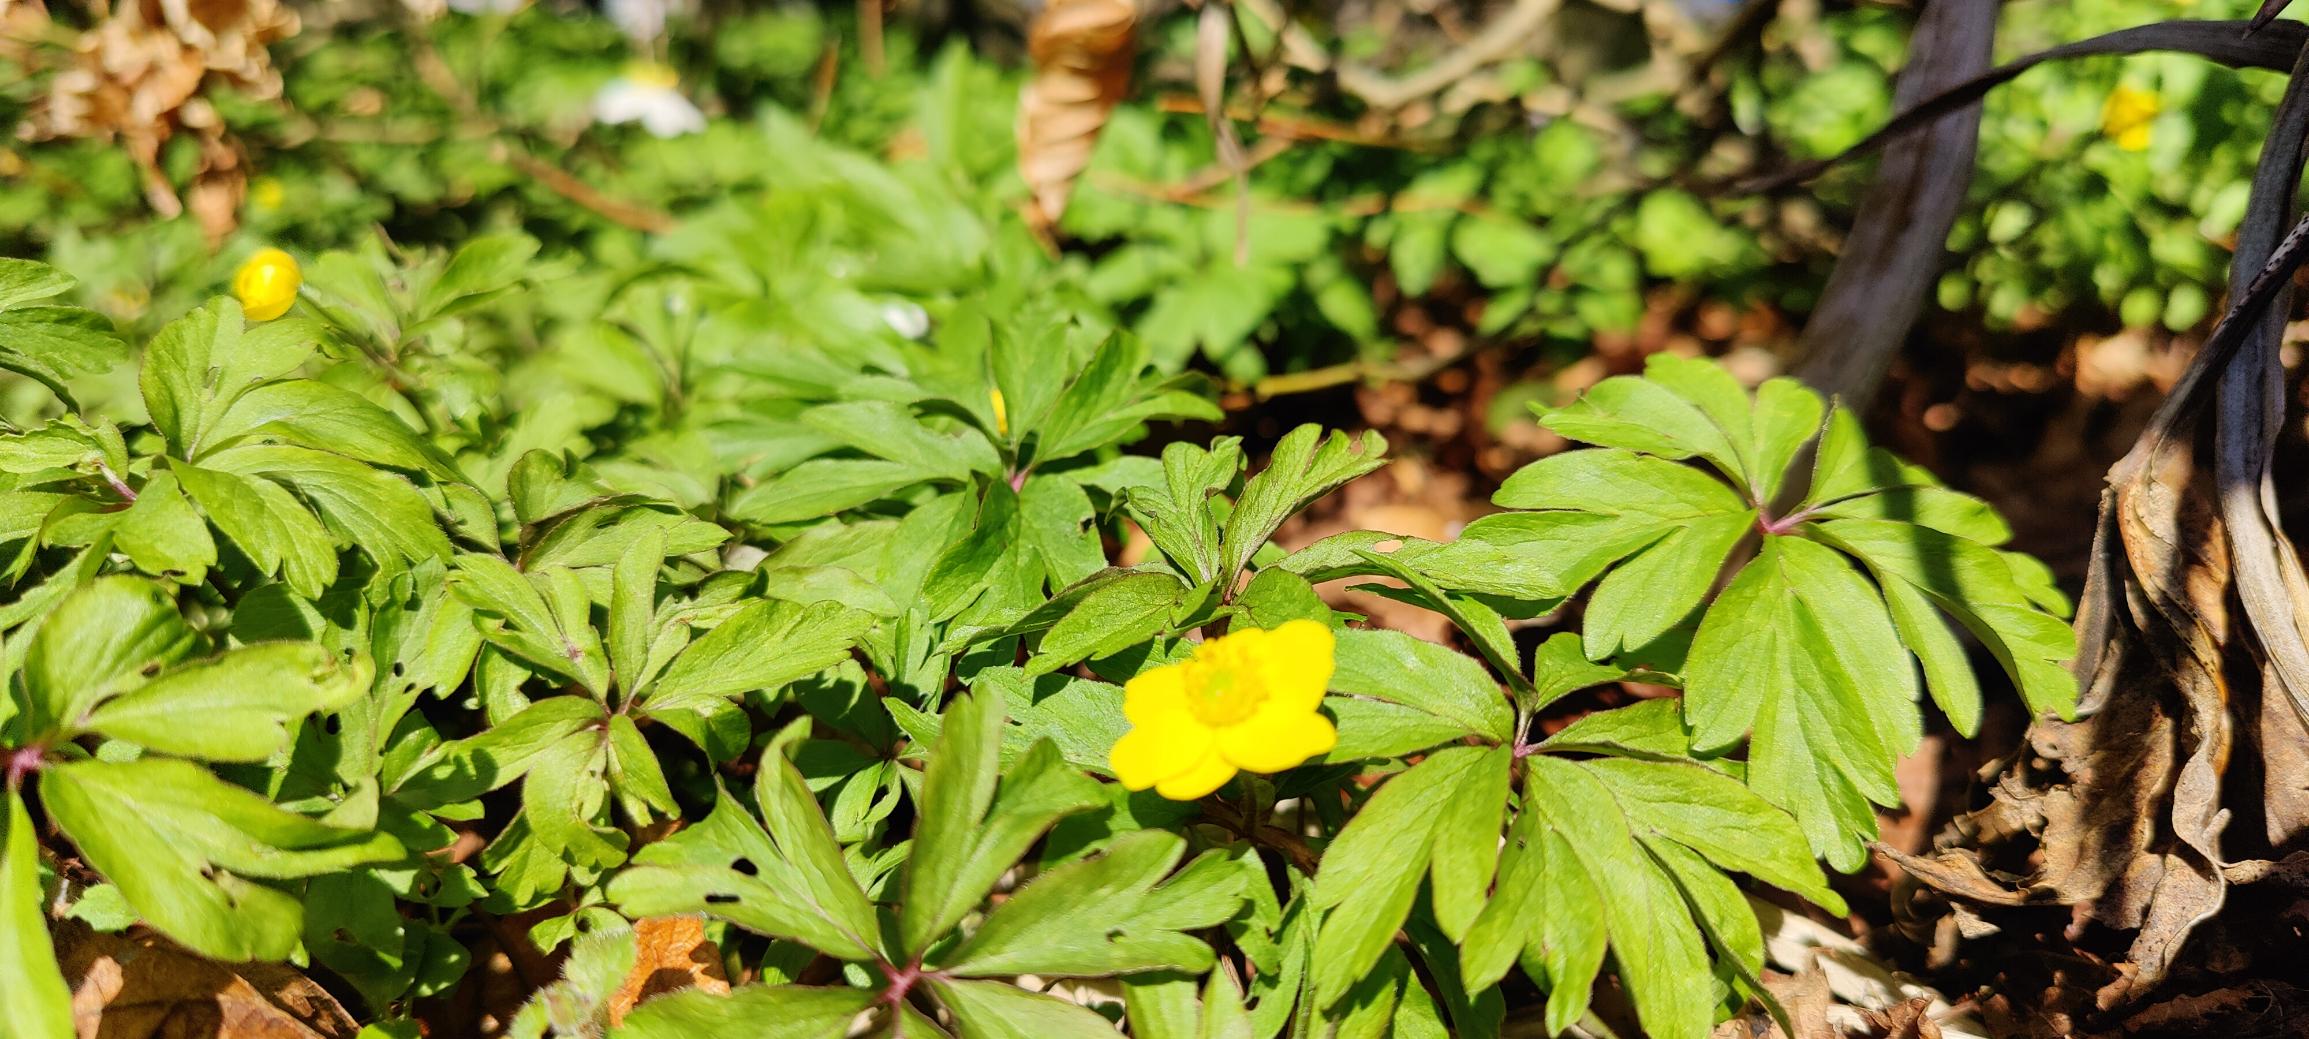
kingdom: Plantae
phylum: Tracheophyta
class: Magnoliopsida
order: Ranunculales
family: Ranunculaceae
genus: Anemone
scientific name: Anemone ranunculoides
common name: Gul anemone
